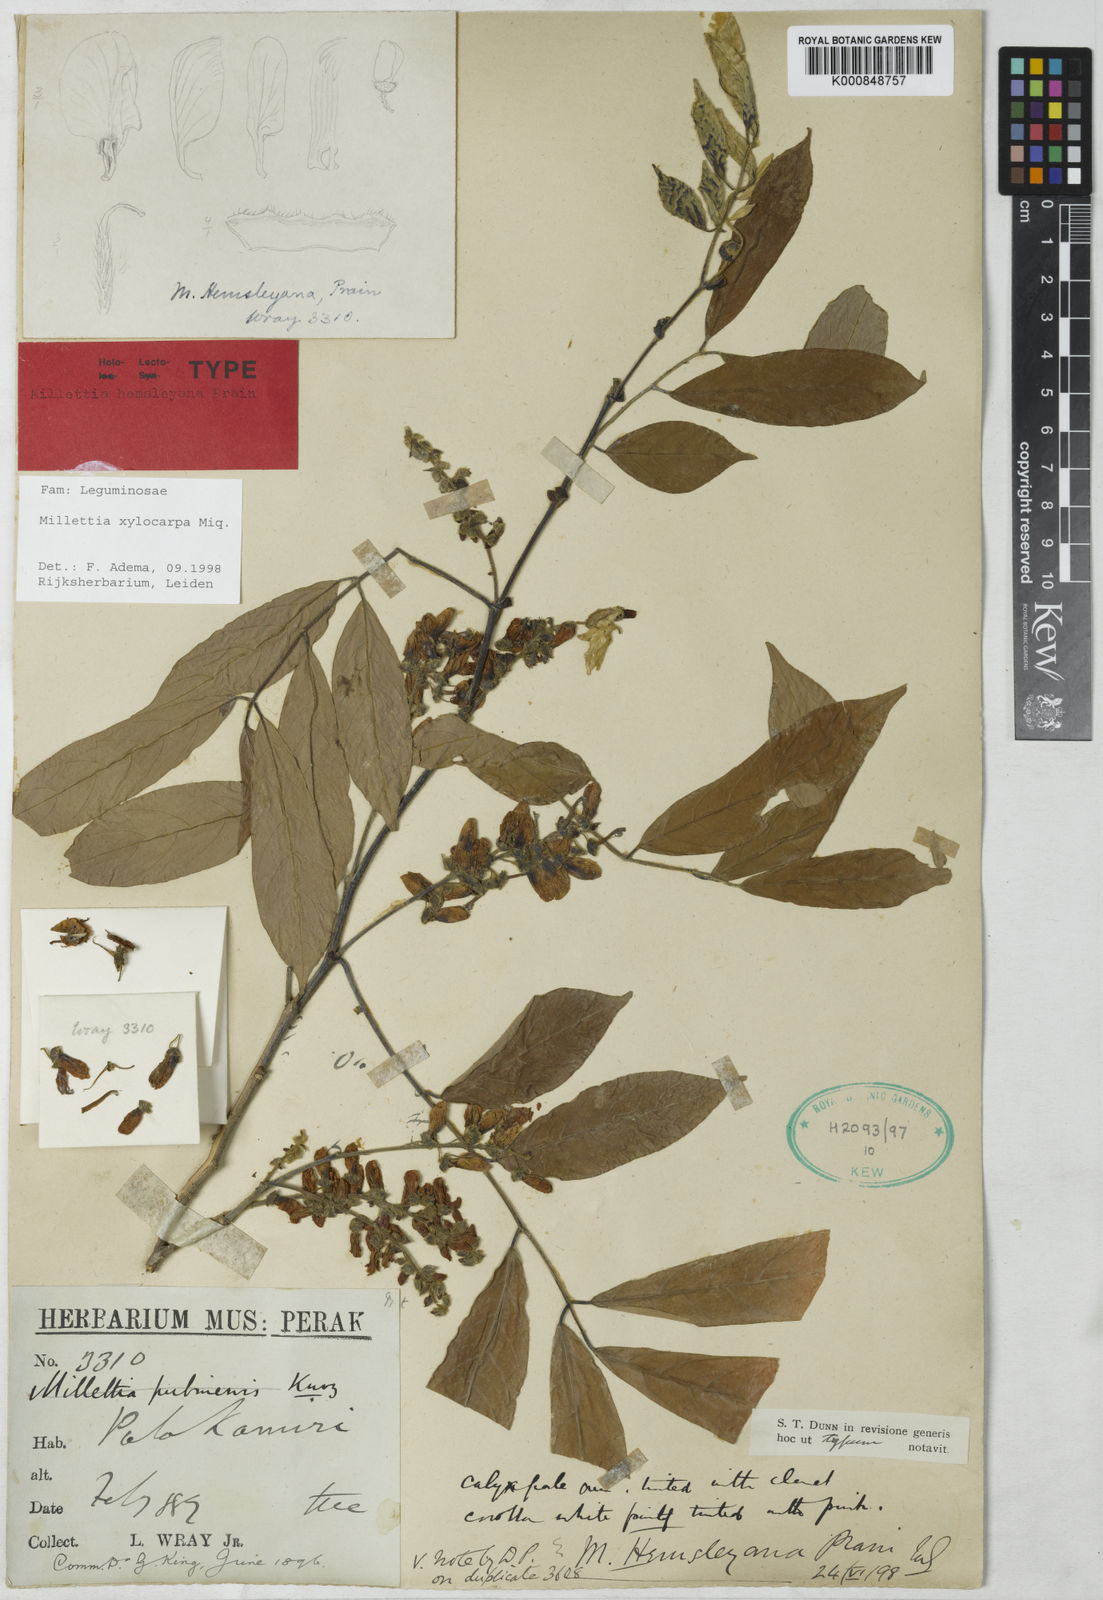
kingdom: Plantae
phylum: Tracheophyta
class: Magnoliopsida
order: Fabales
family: Fabaceae
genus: Millettia
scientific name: Millettia xylocarpa
